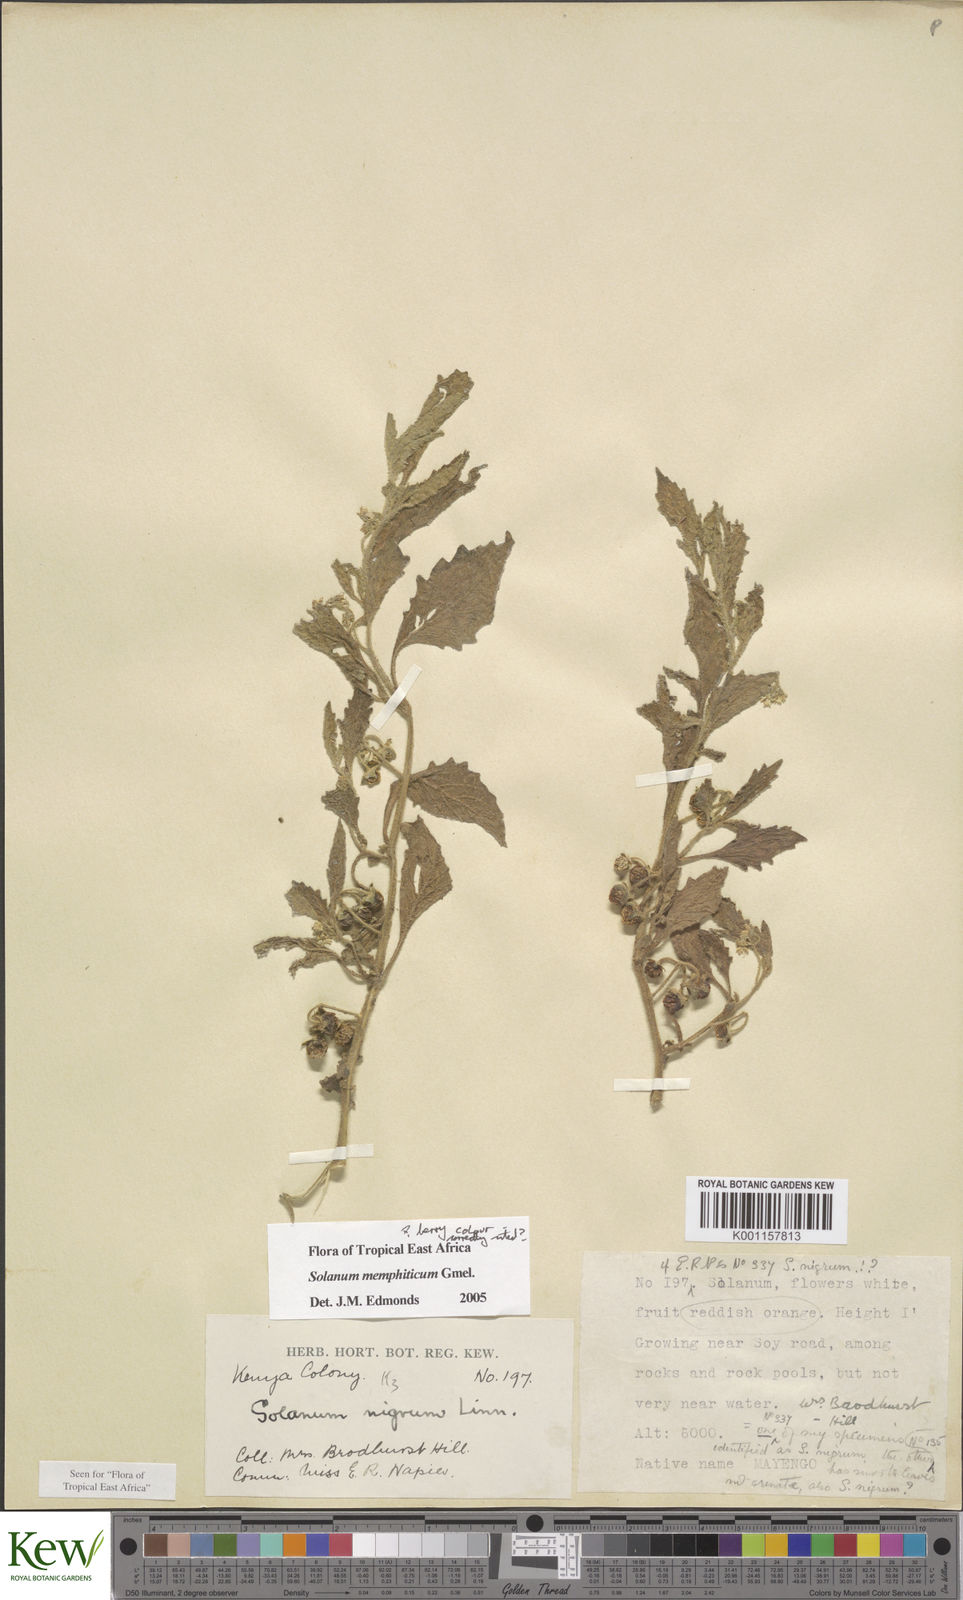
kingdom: Plantae
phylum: Tracheophyta
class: Magnoliopsida
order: Solanales
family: Solanaceae
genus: Solanum
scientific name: Solanum memphiticum
